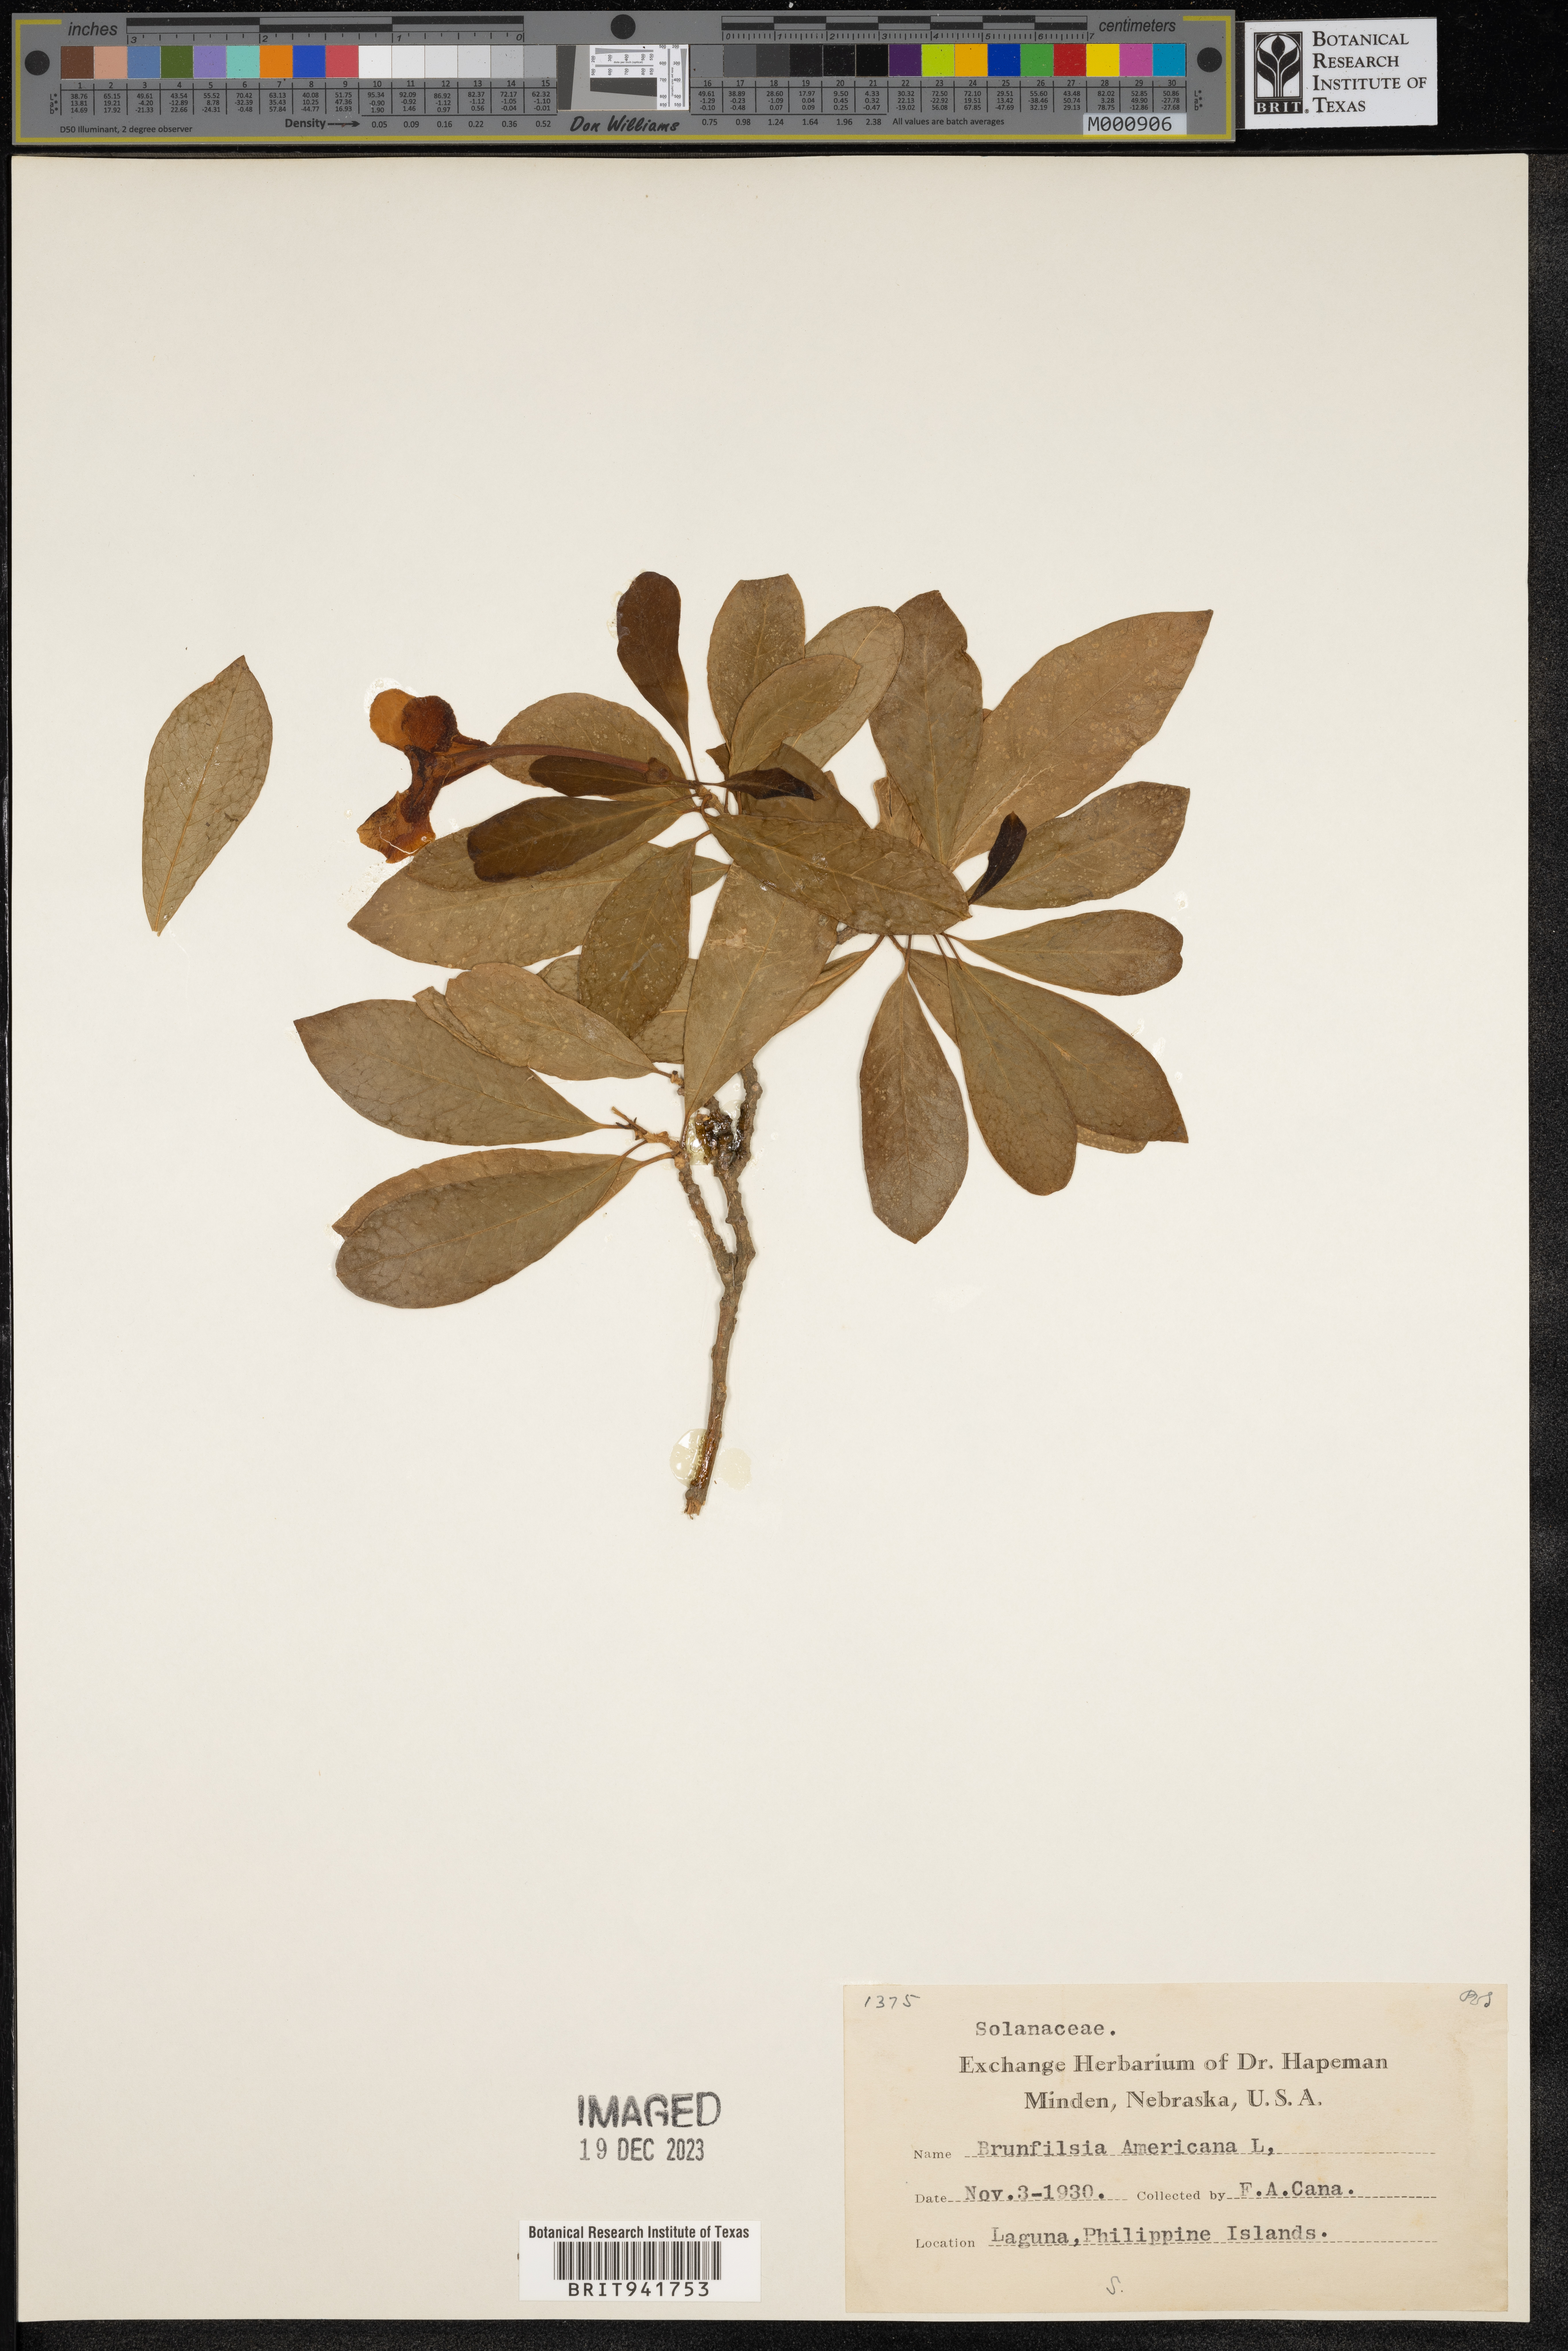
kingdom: Plantae
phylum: Tracheophyta
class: Magnoliopsida
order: Solanales
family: Solanaceae
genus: Brunfelsia
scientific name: Brunfelsia
